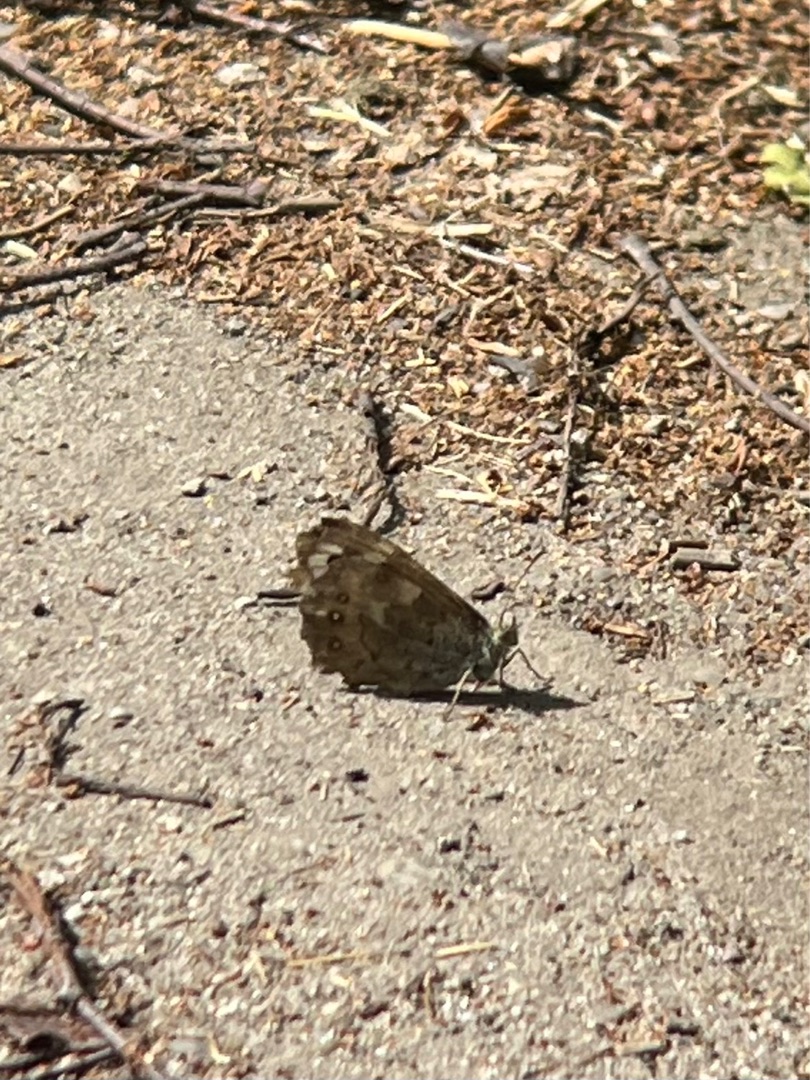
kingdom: Animalia
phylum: Arthropoda
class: Insecta
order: Lepidoptera
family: Nymphalidae
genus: Pararge
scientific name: Pararge aegeria
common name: Skovrandøje
